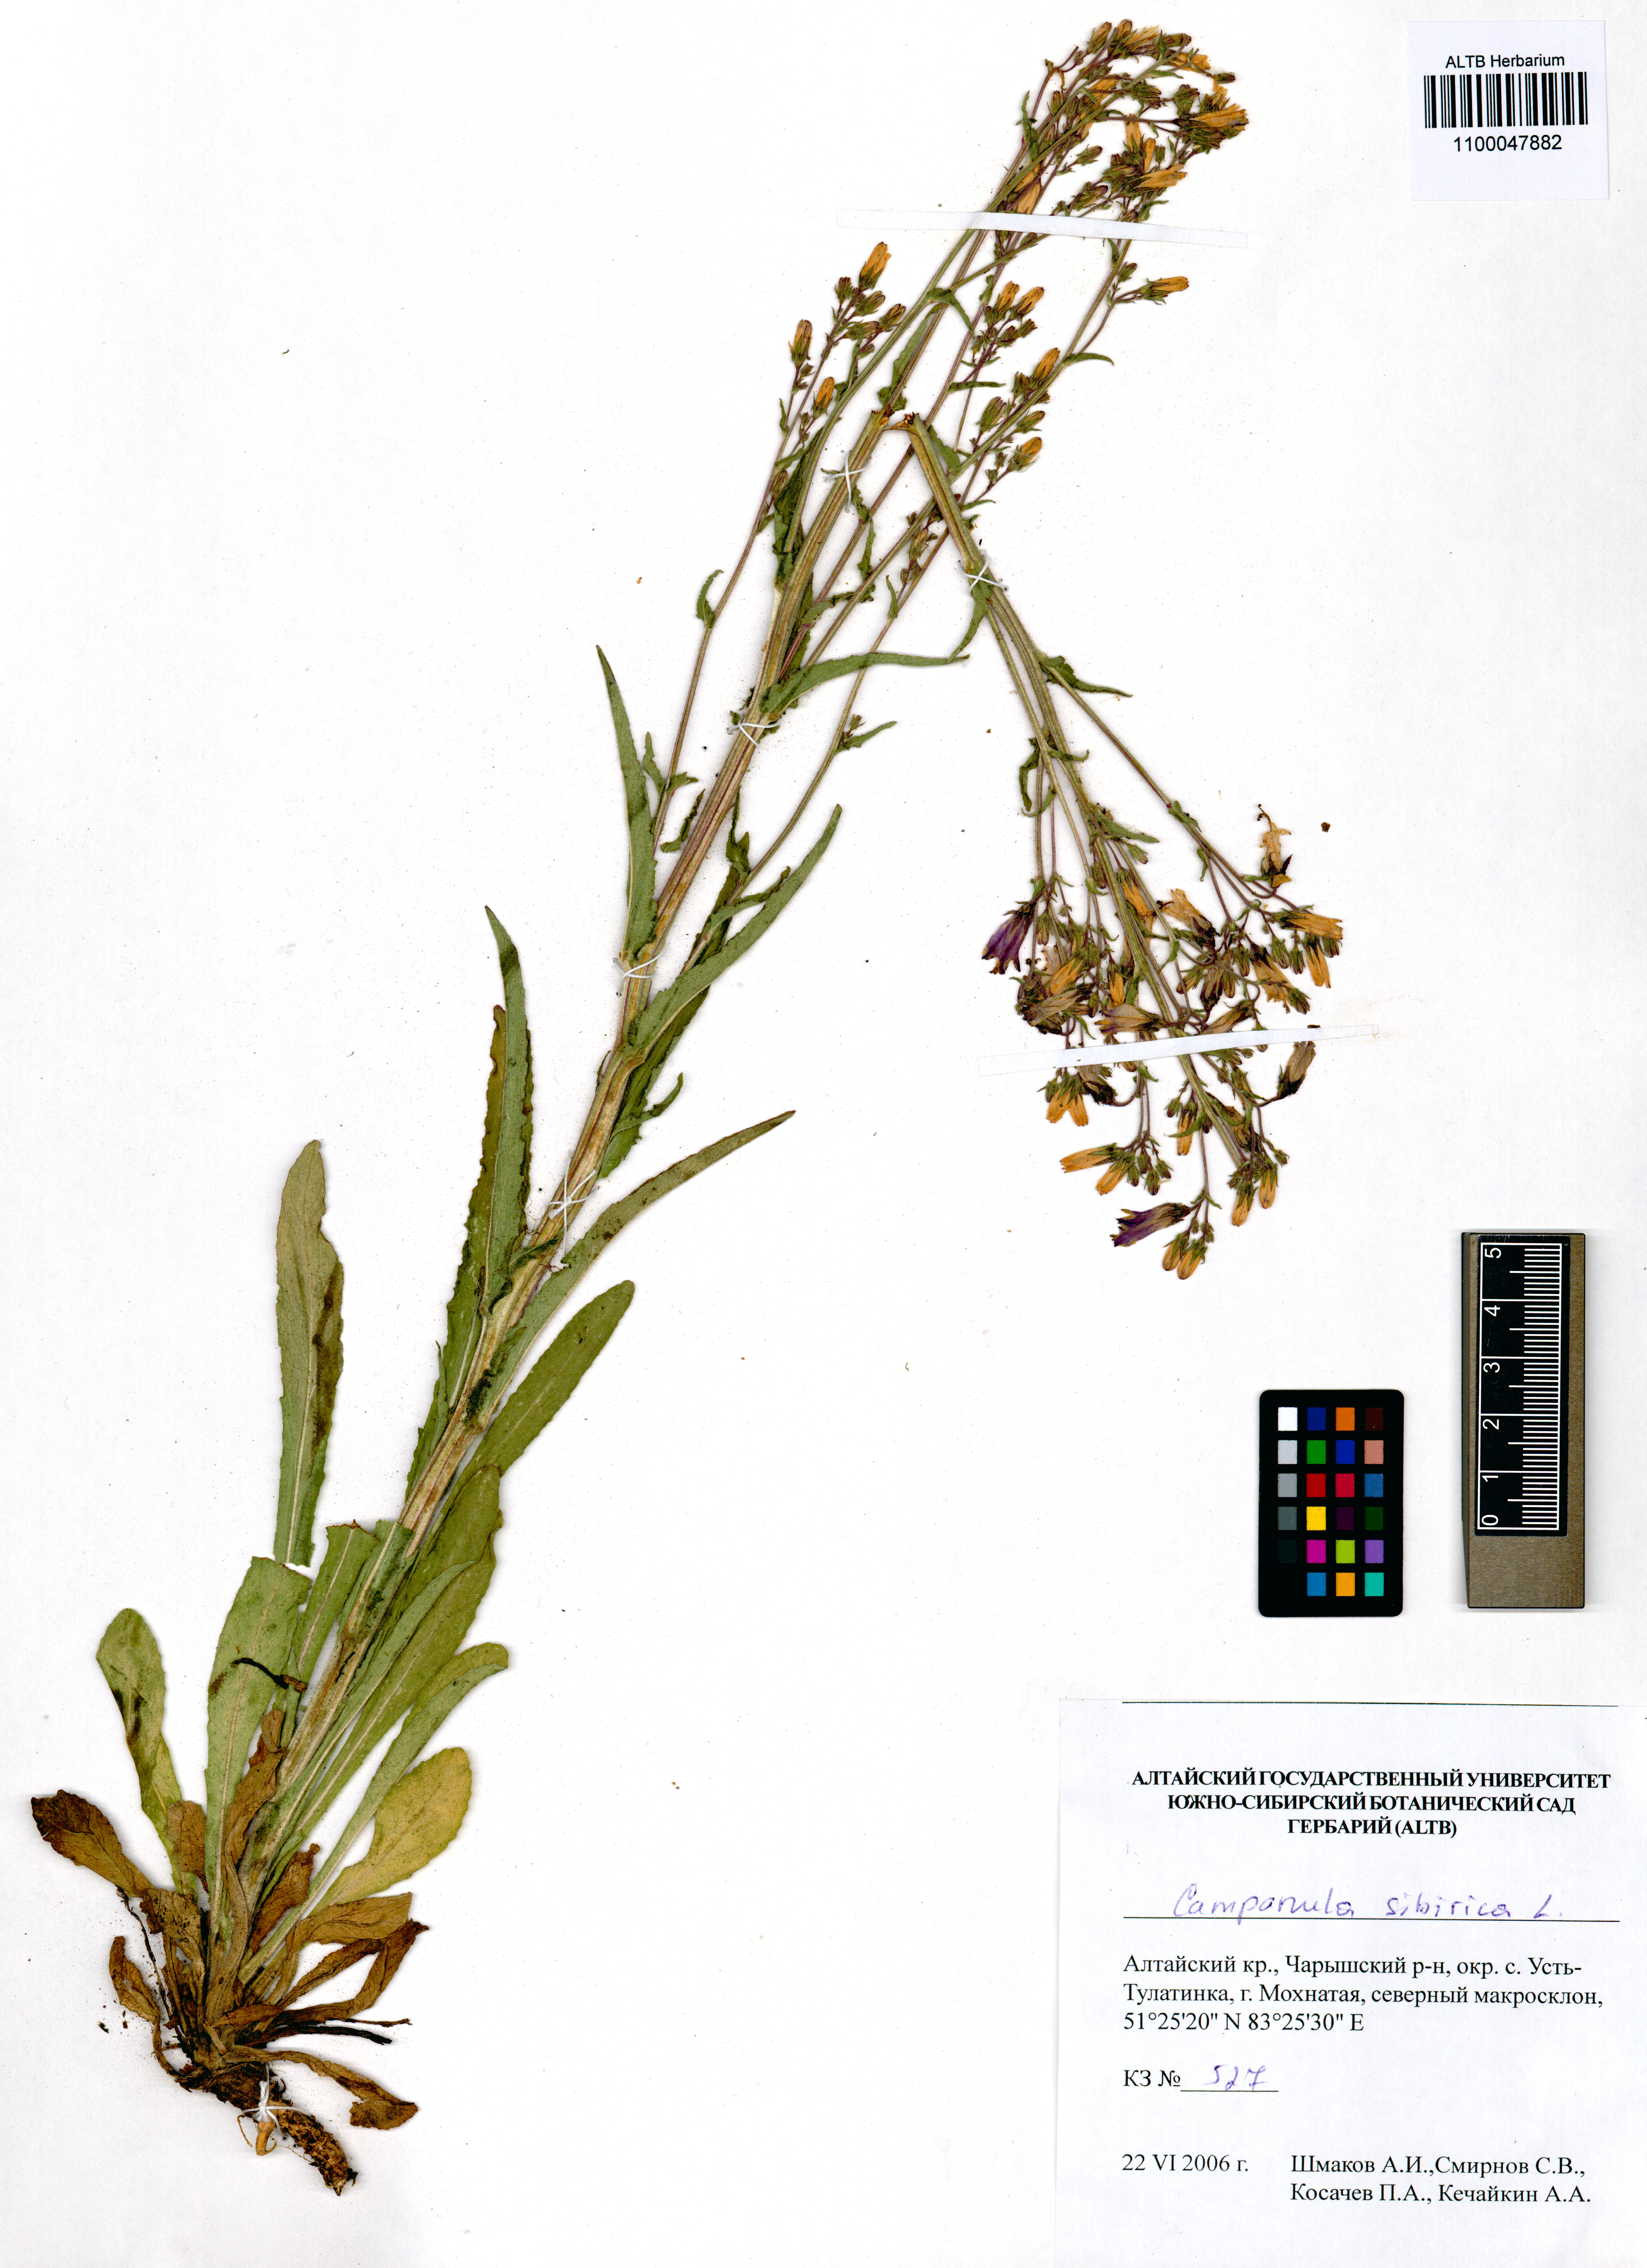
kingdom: Plantae
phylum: Tracheophyta
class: Magnoliopsida
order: Asterales
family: Campanulaceae
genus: Campanula
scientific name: Campanula sibirica
